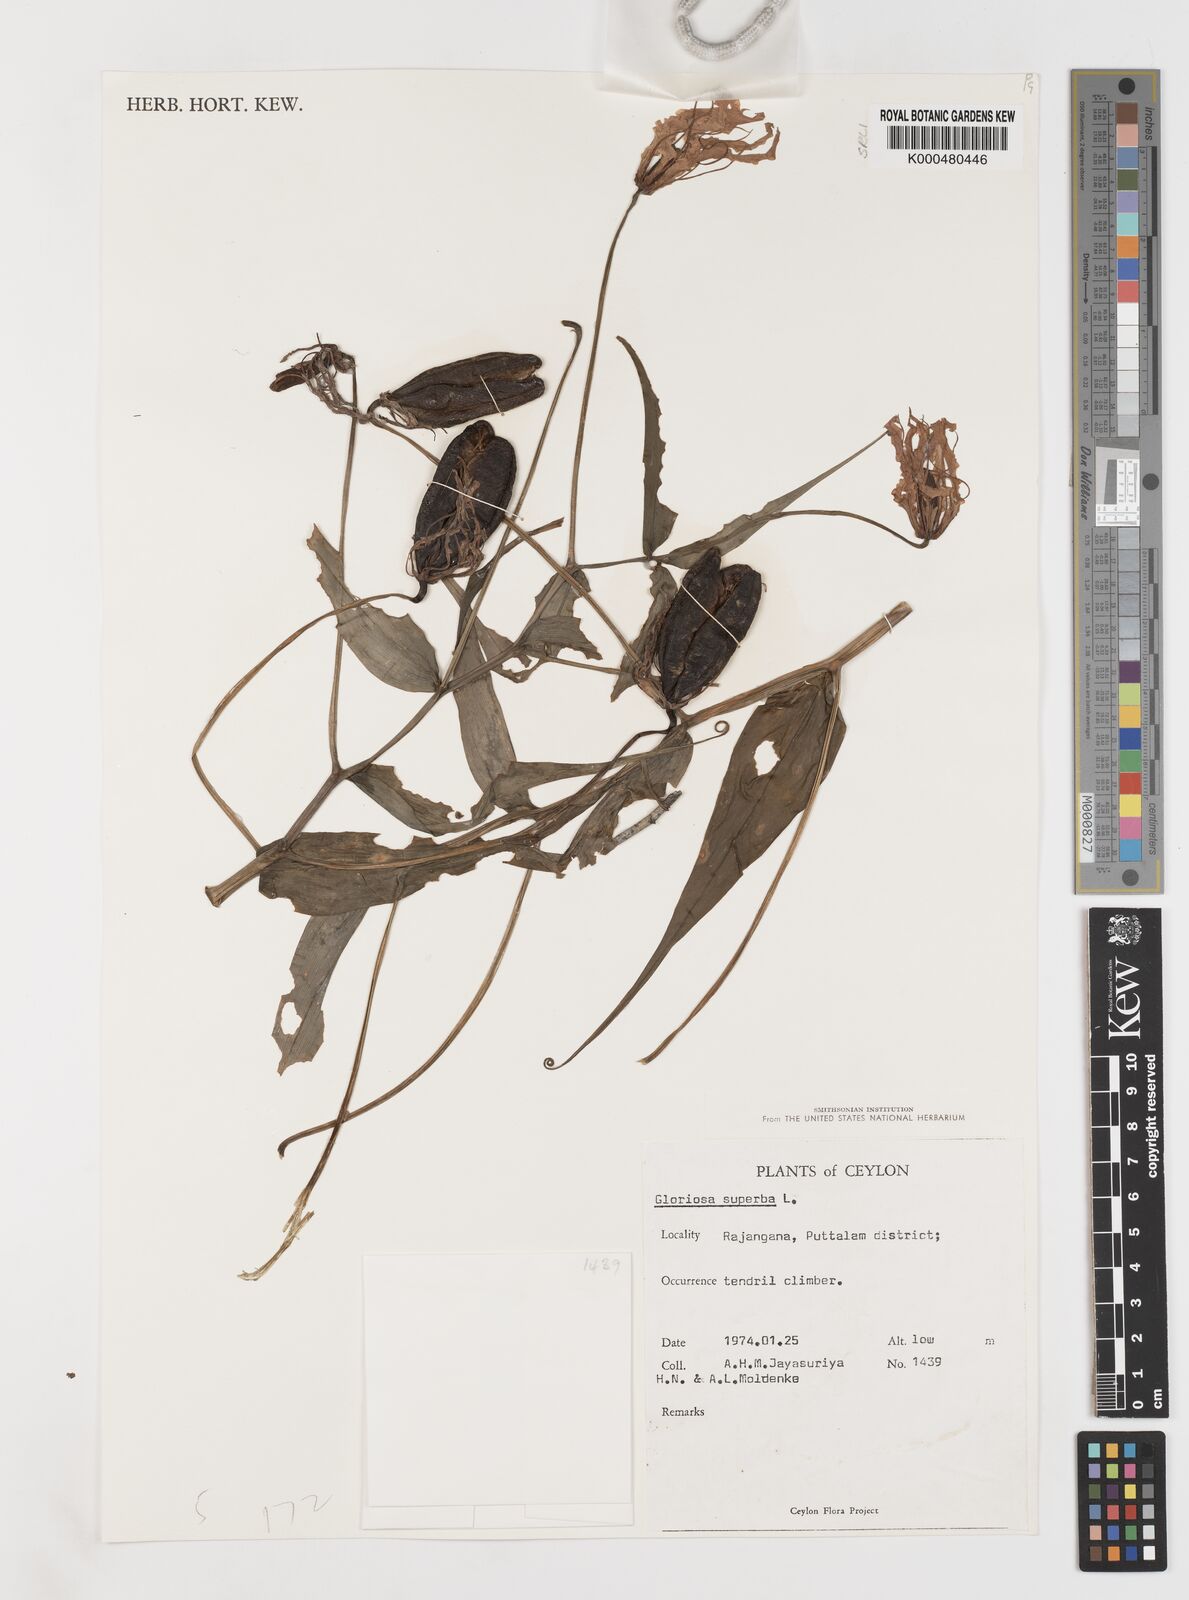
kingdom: Plantae
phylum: Tracheophyta
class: Liliopsida
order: Liliales
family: Colchicaceae
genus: Gloriosa
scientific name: Gloriosa superba
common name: Flame lily
